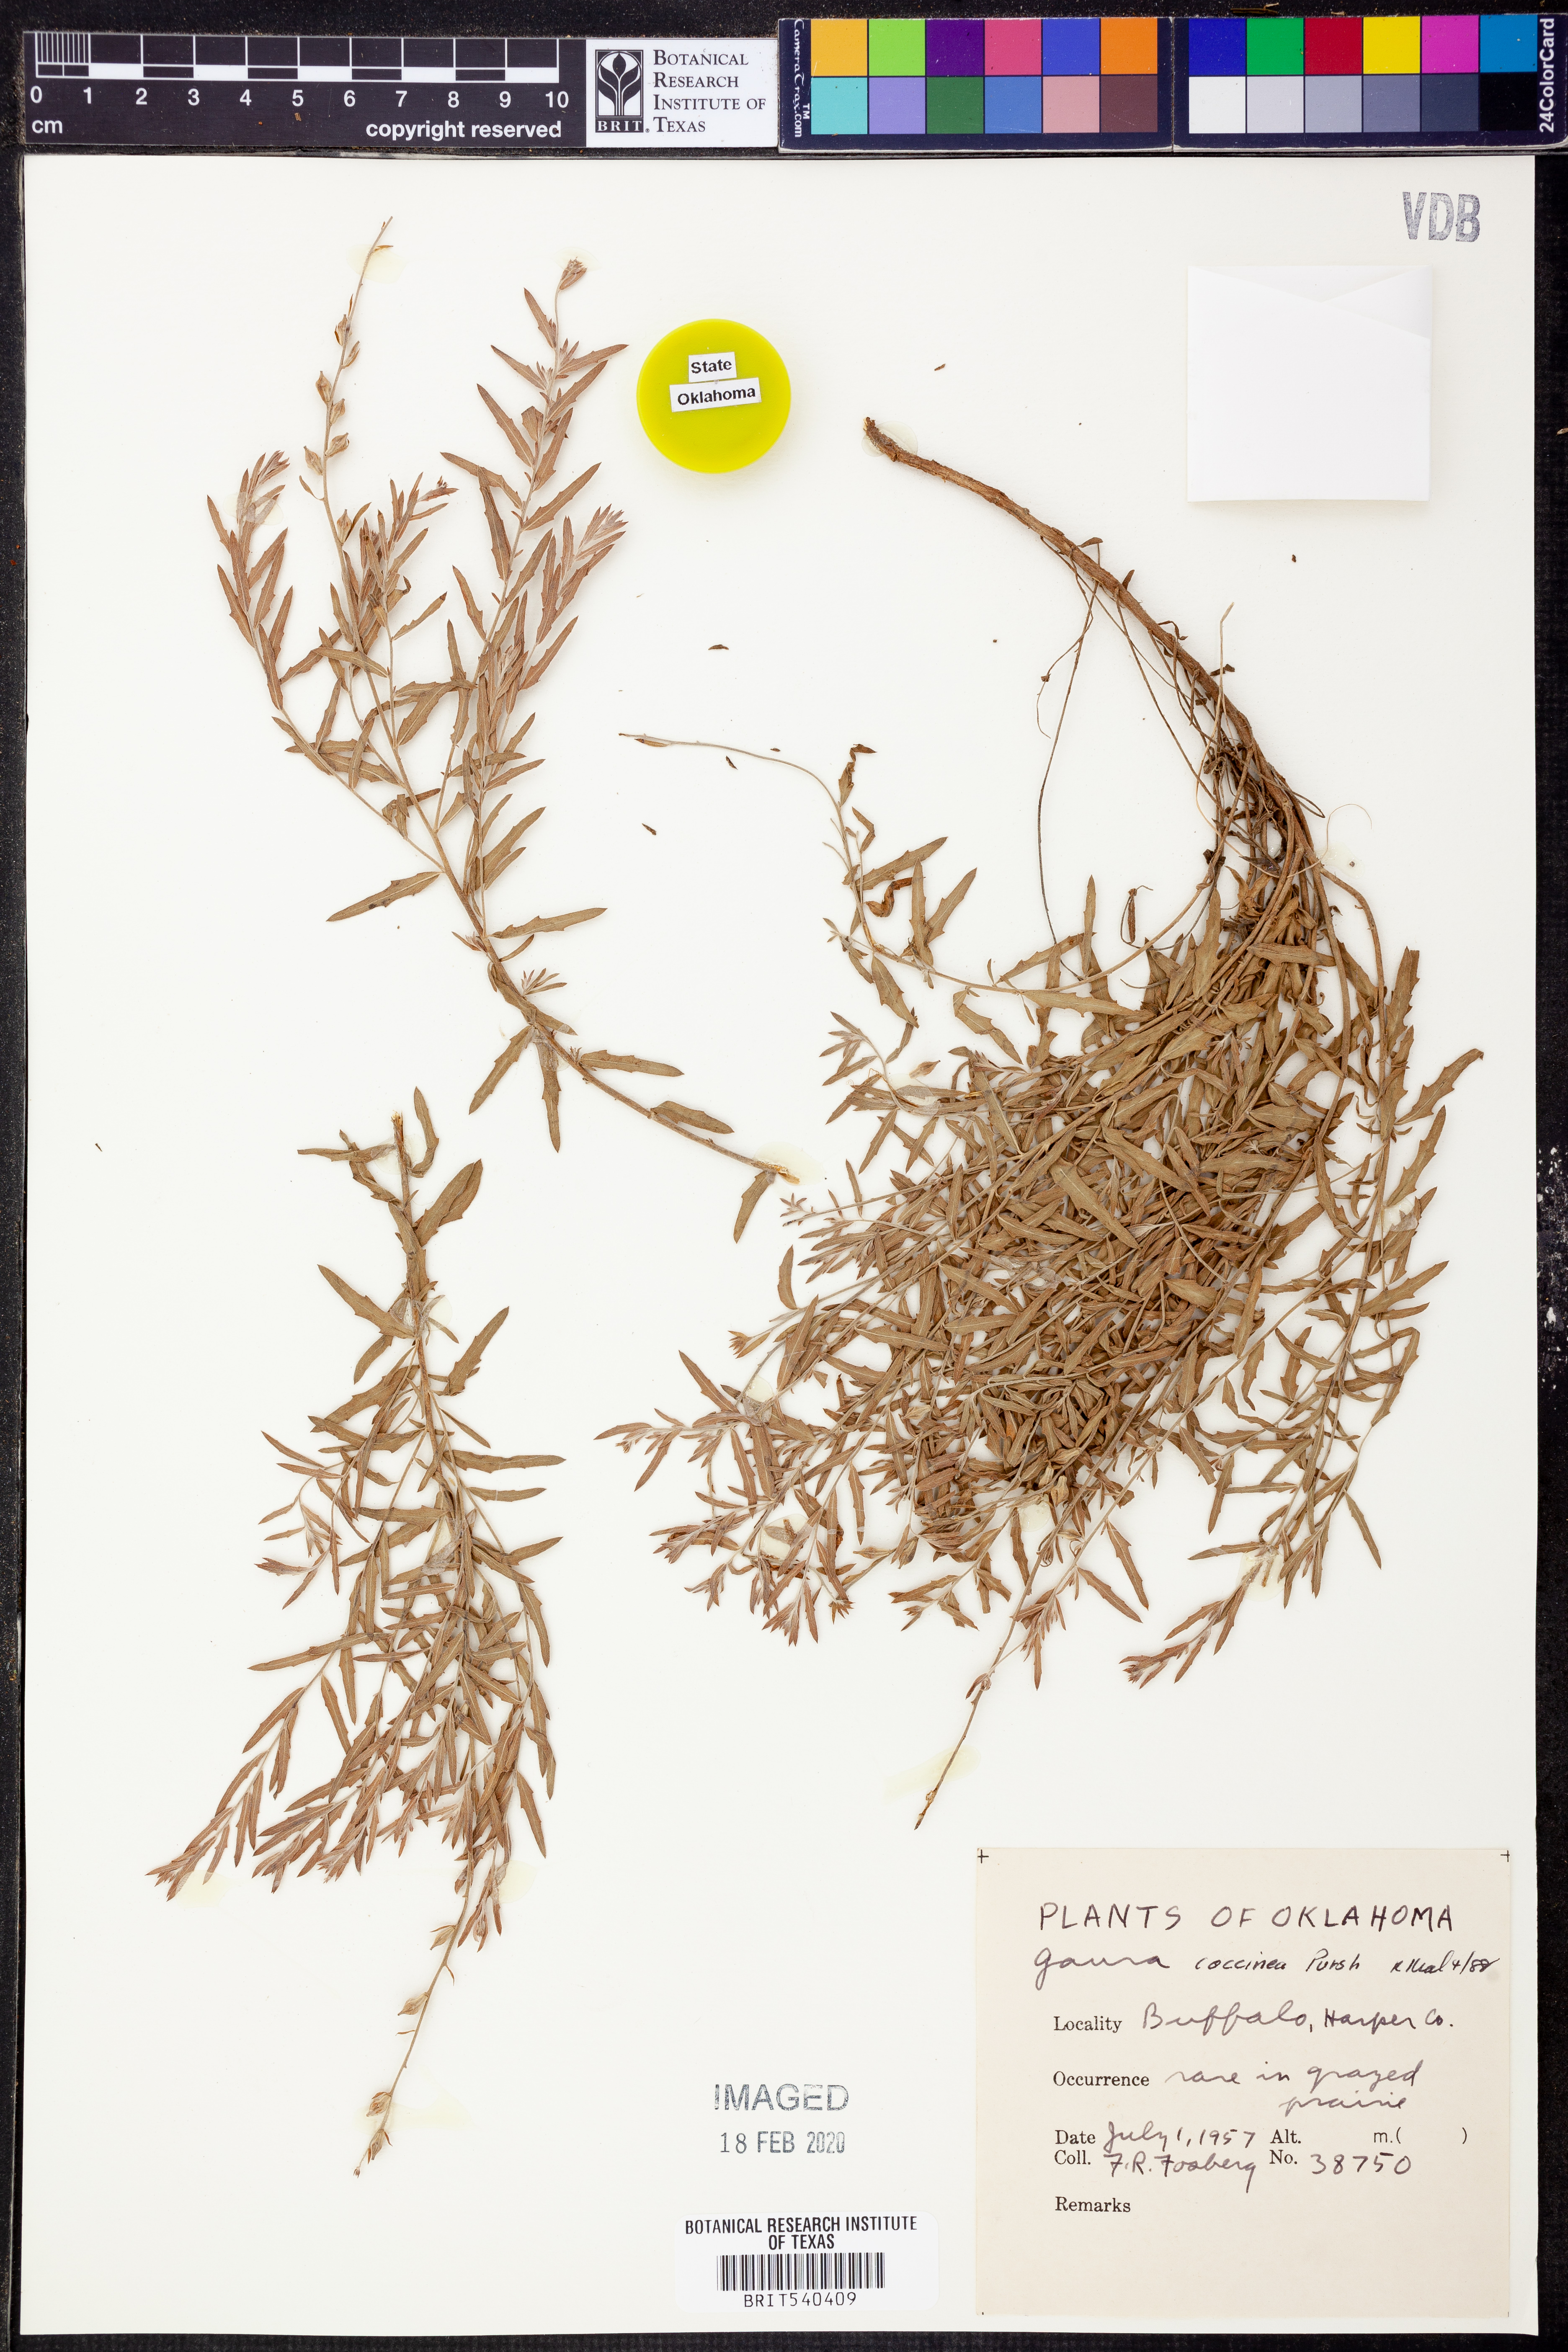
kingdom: Plantae
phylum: Tracheophyta
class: Magnoliopsida
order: Myrtales
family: Onagraceae
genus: Oenothera
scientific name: Oenothera suffrutescens
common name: Scarlet beeblossom
